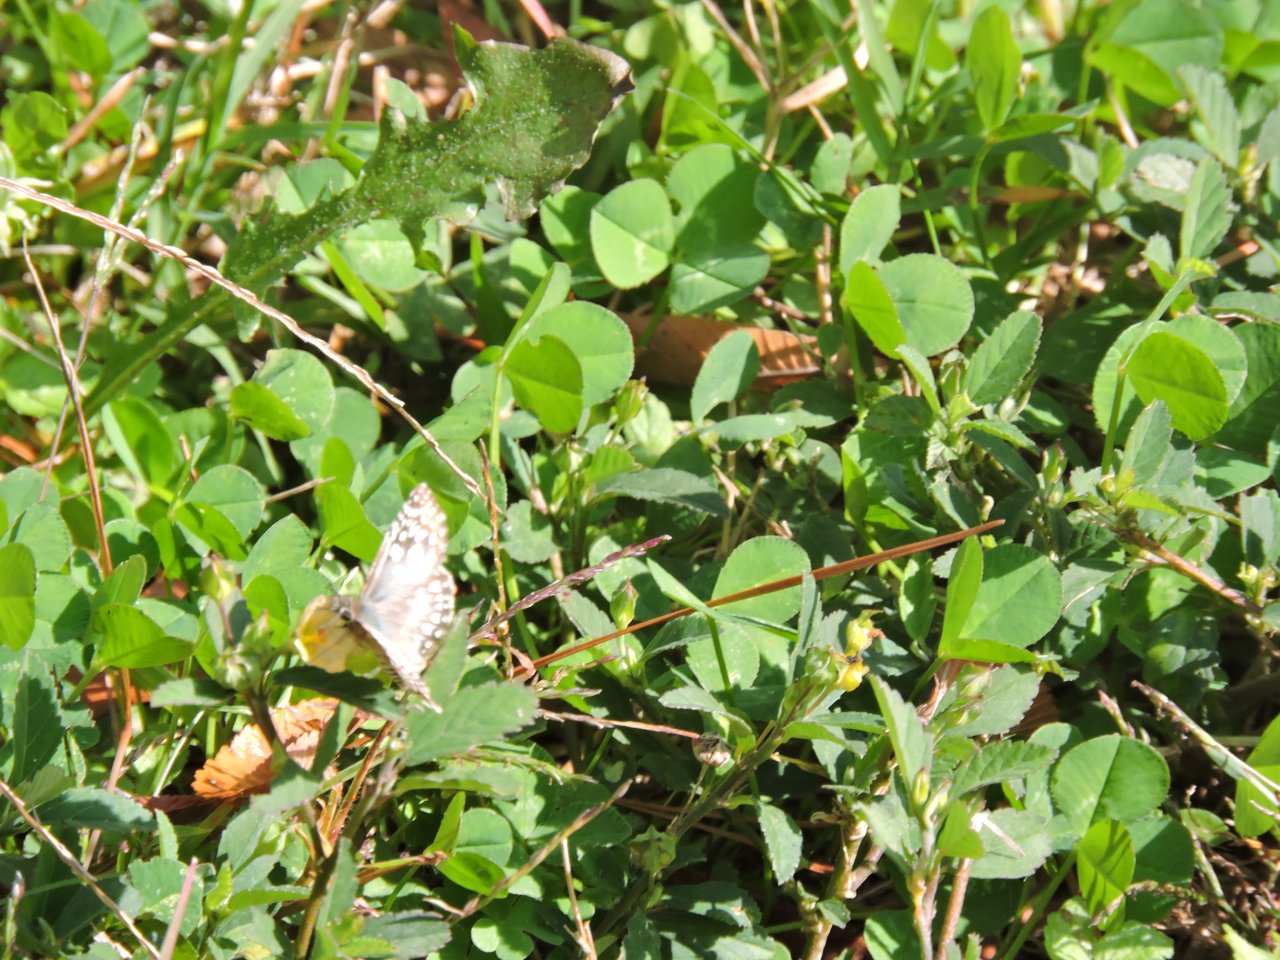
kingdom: Animalia
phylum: Arthropoda
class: Insecta
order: Lepidoptera
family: Hesperiidae
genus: Pyrgus
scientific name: Pyrgus oileus
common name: Tropical Checkered-Skipper
